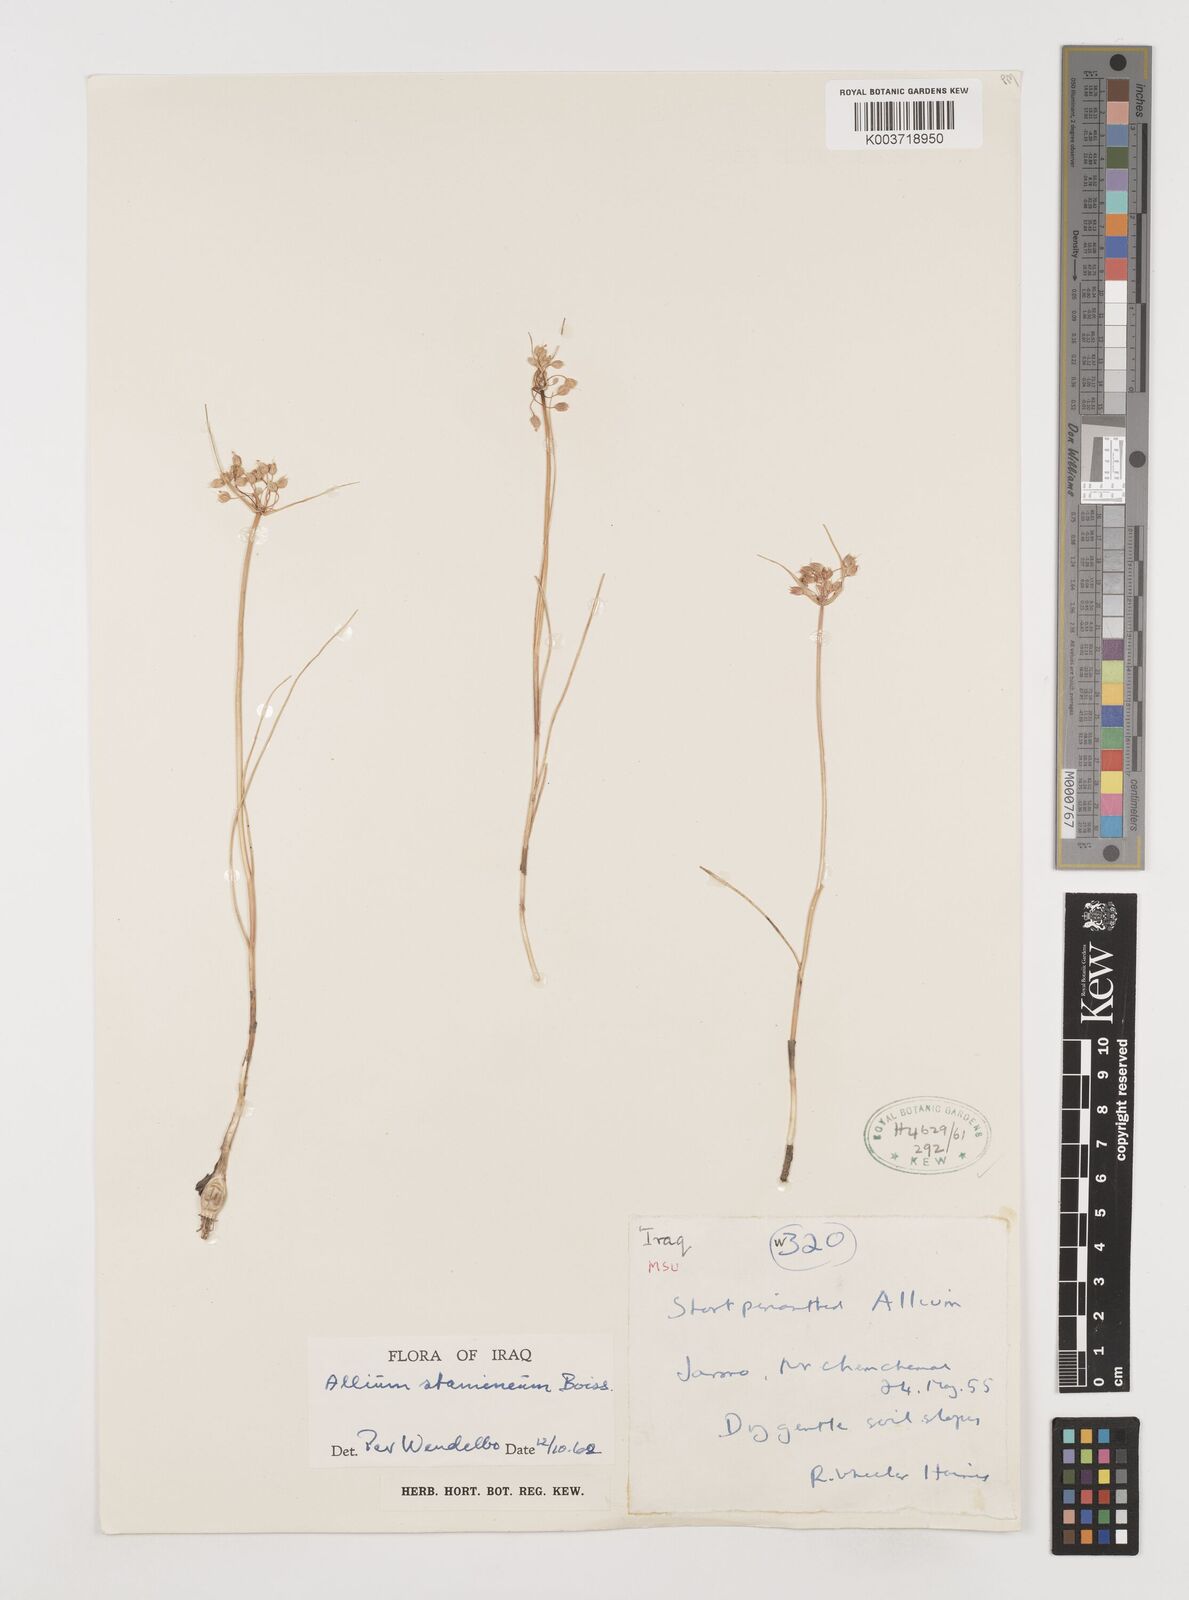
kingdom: Plantae
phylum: Tracheophyta
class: Liliopsida
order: Asparagales
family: Amaryllidaceae
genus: Allium
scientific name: Allium stamineum
